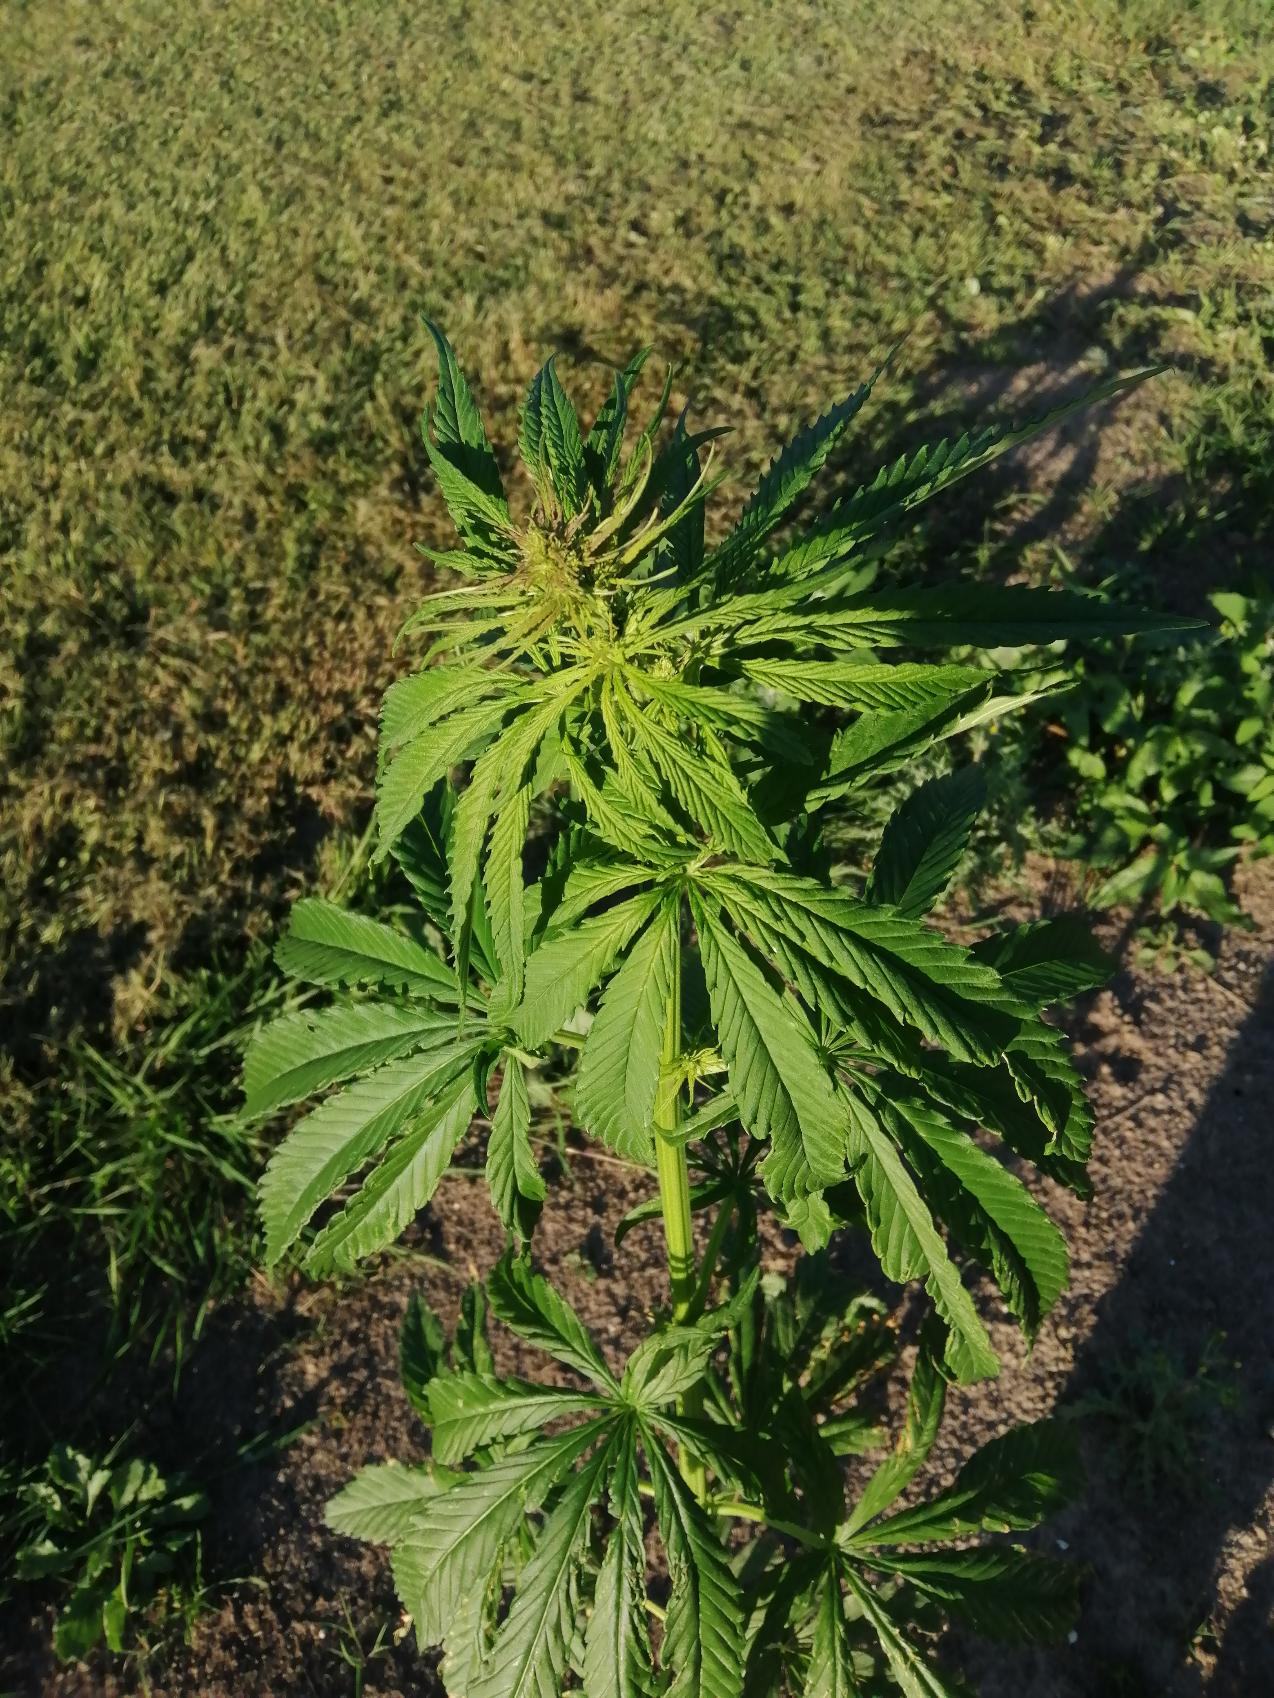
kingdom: Plantae
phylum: Tracheophyta
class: Magnoliopsida
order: Rosales
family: Cannabaceae
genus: Cannabis
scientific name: Cannabis sativa
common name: Hamp
